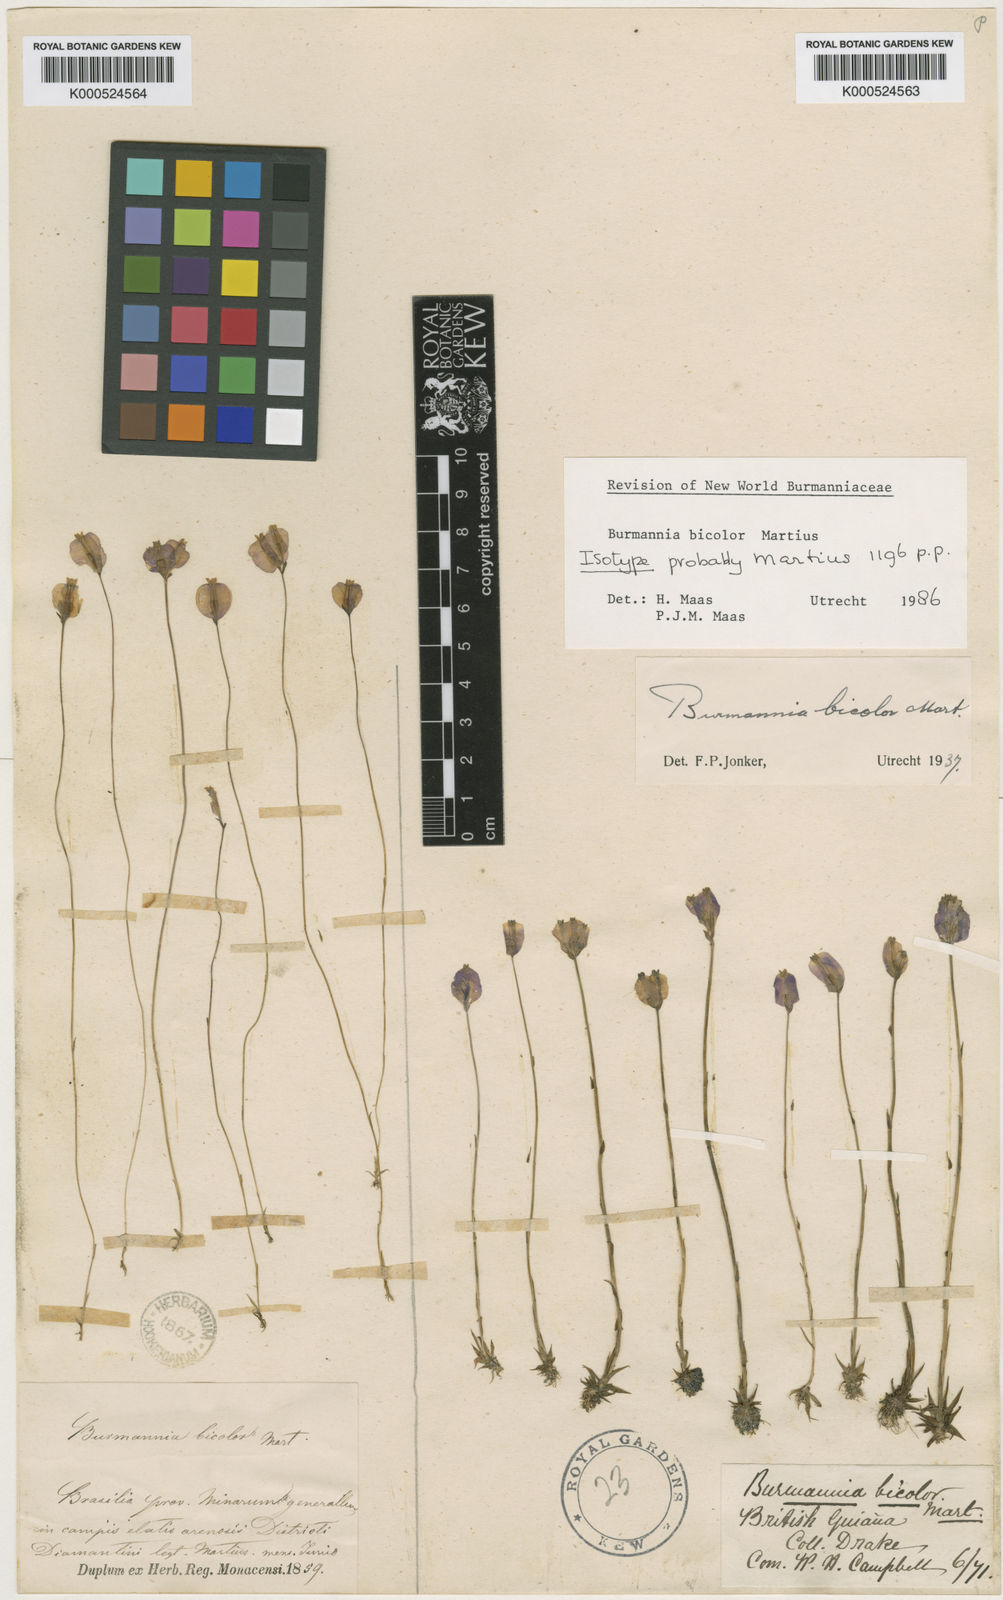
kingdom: Plantae
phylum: Tracheophyta
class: Liliopsida
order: Dioscoreales
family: Burmanniaceae
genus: Burmannia
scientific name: Burmannia bicolor
